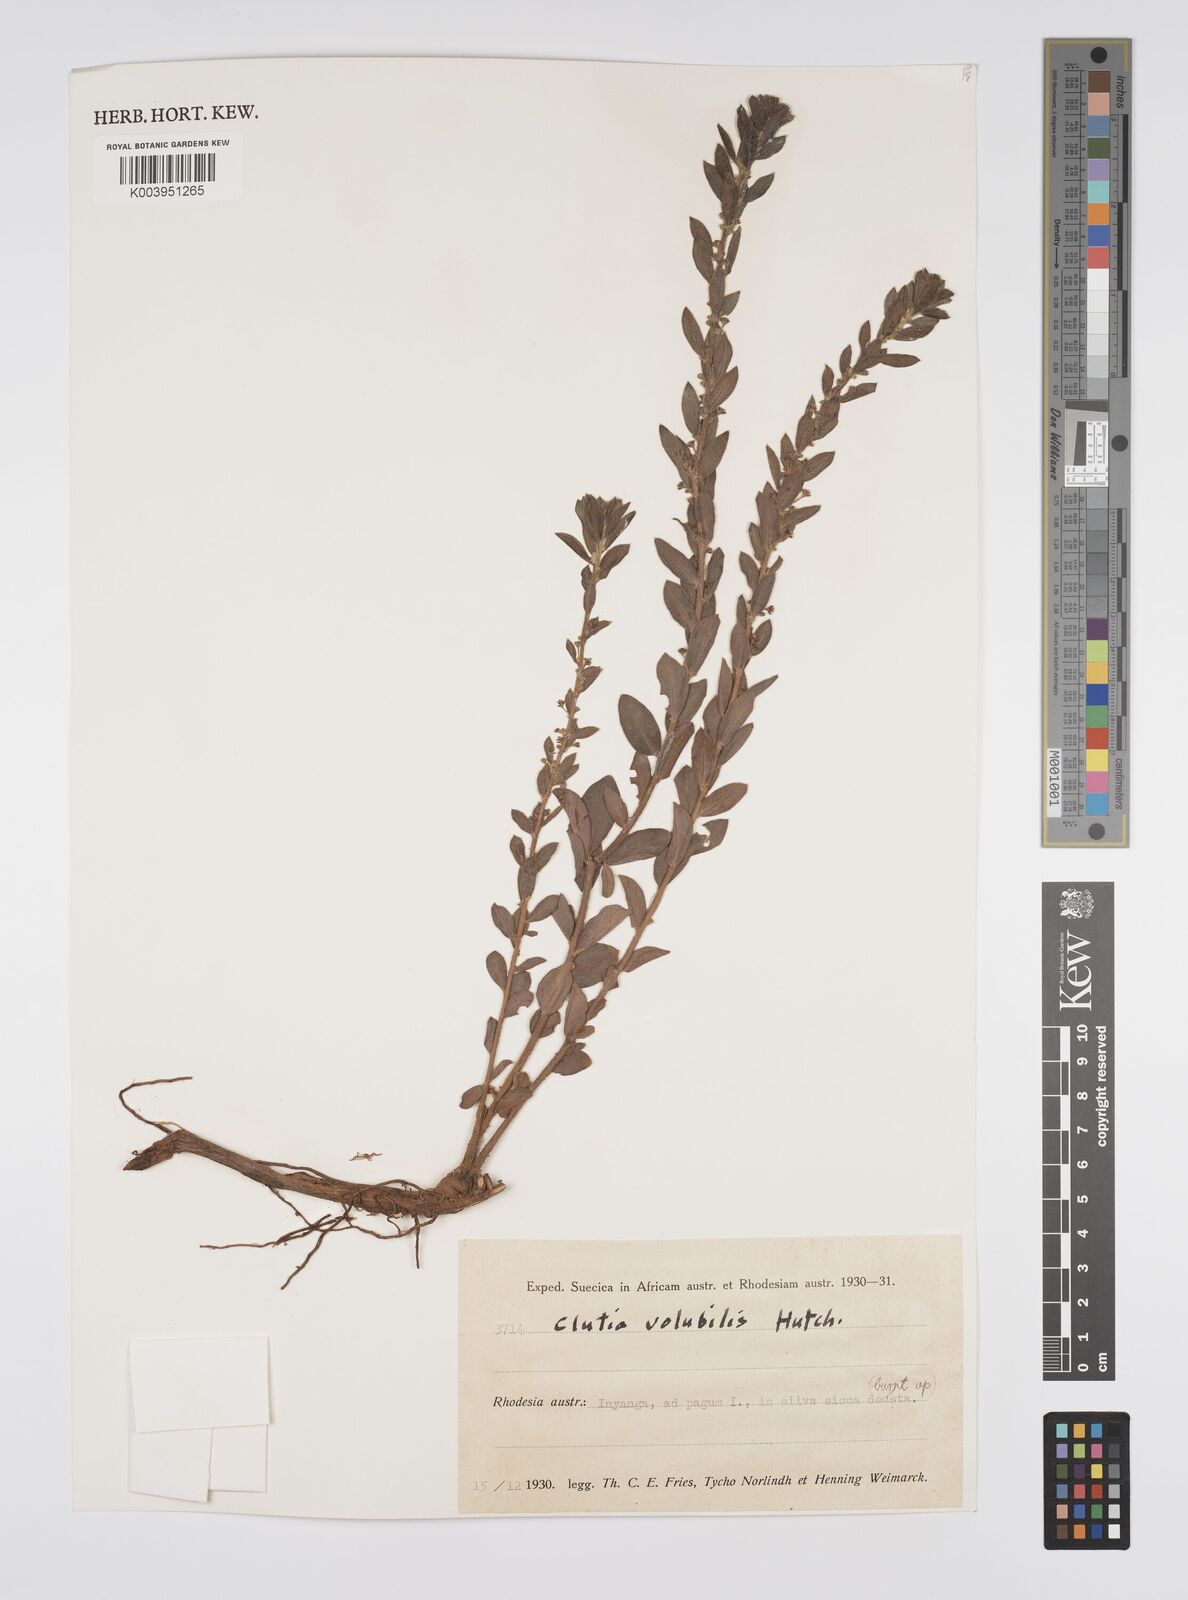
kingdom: Plantae
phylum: Tracheophyta
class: Magnoliopsida
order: Malpighiales
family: Peraceae
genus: Clutia
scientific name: Clutia
